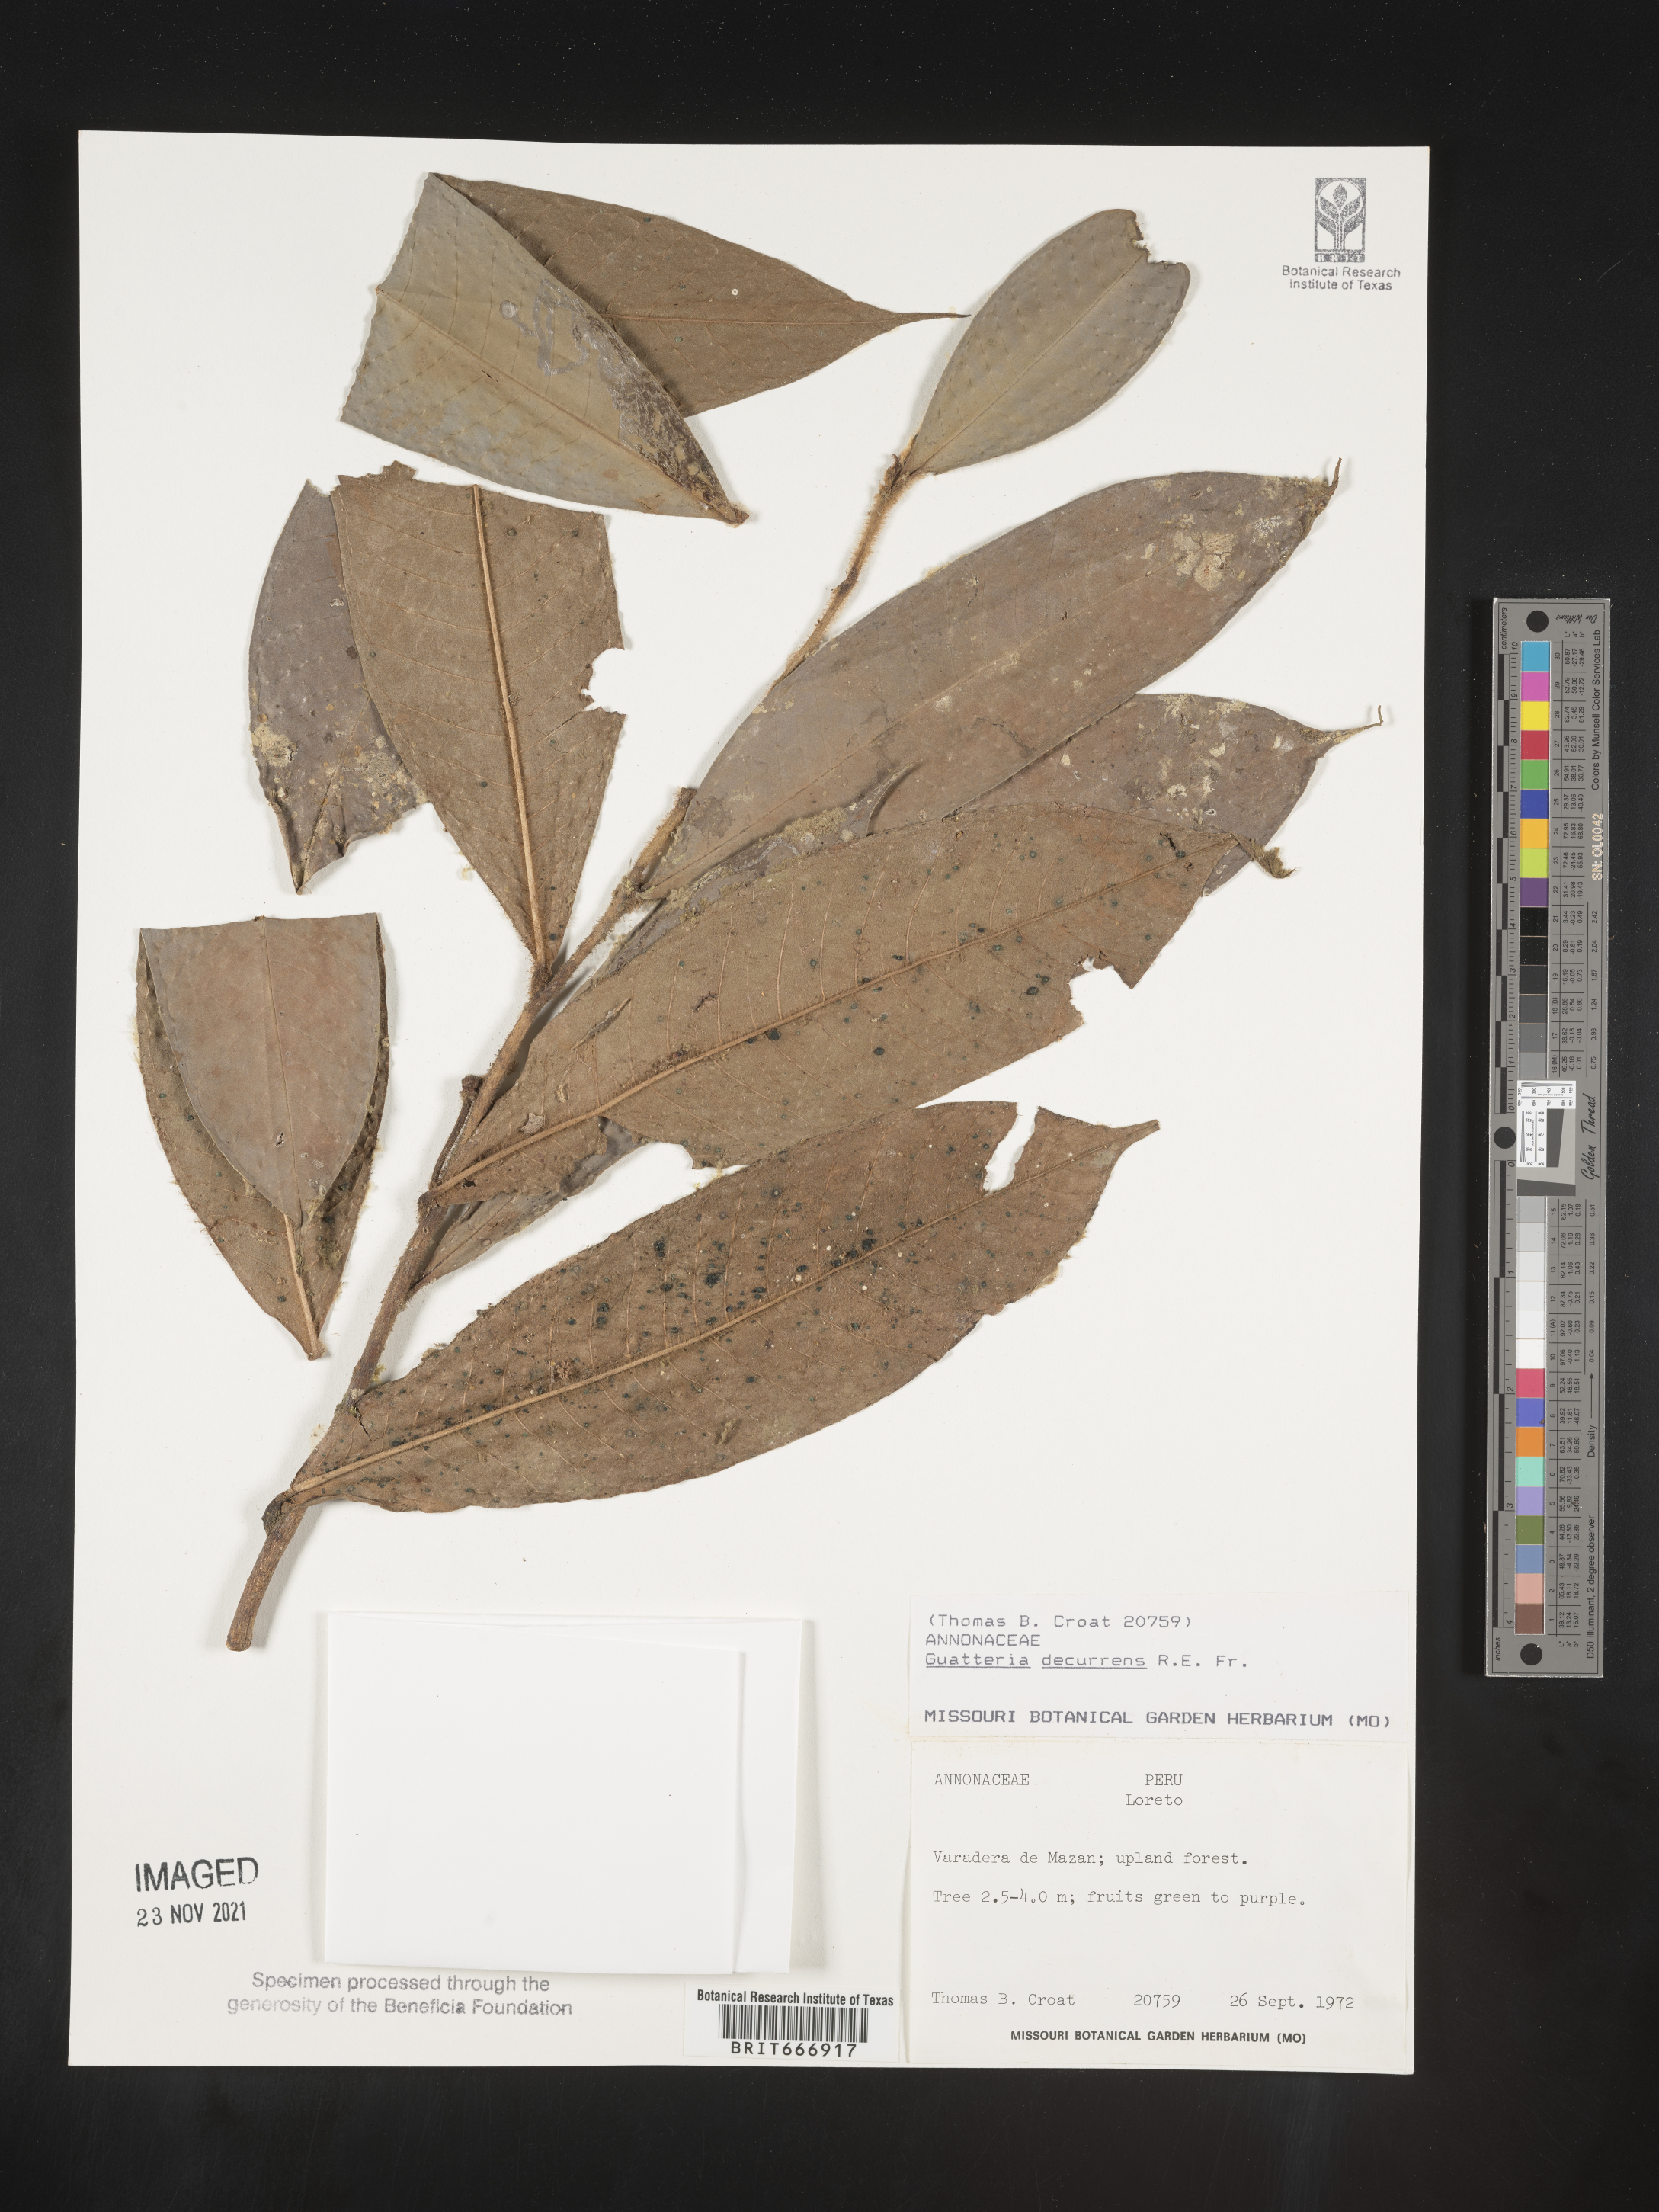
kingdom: Plantae
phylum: Tracheophyta
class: Magnoliopsida
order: Magnoliales
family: Annonaceae
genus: Guatteria
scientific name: Guatteria
